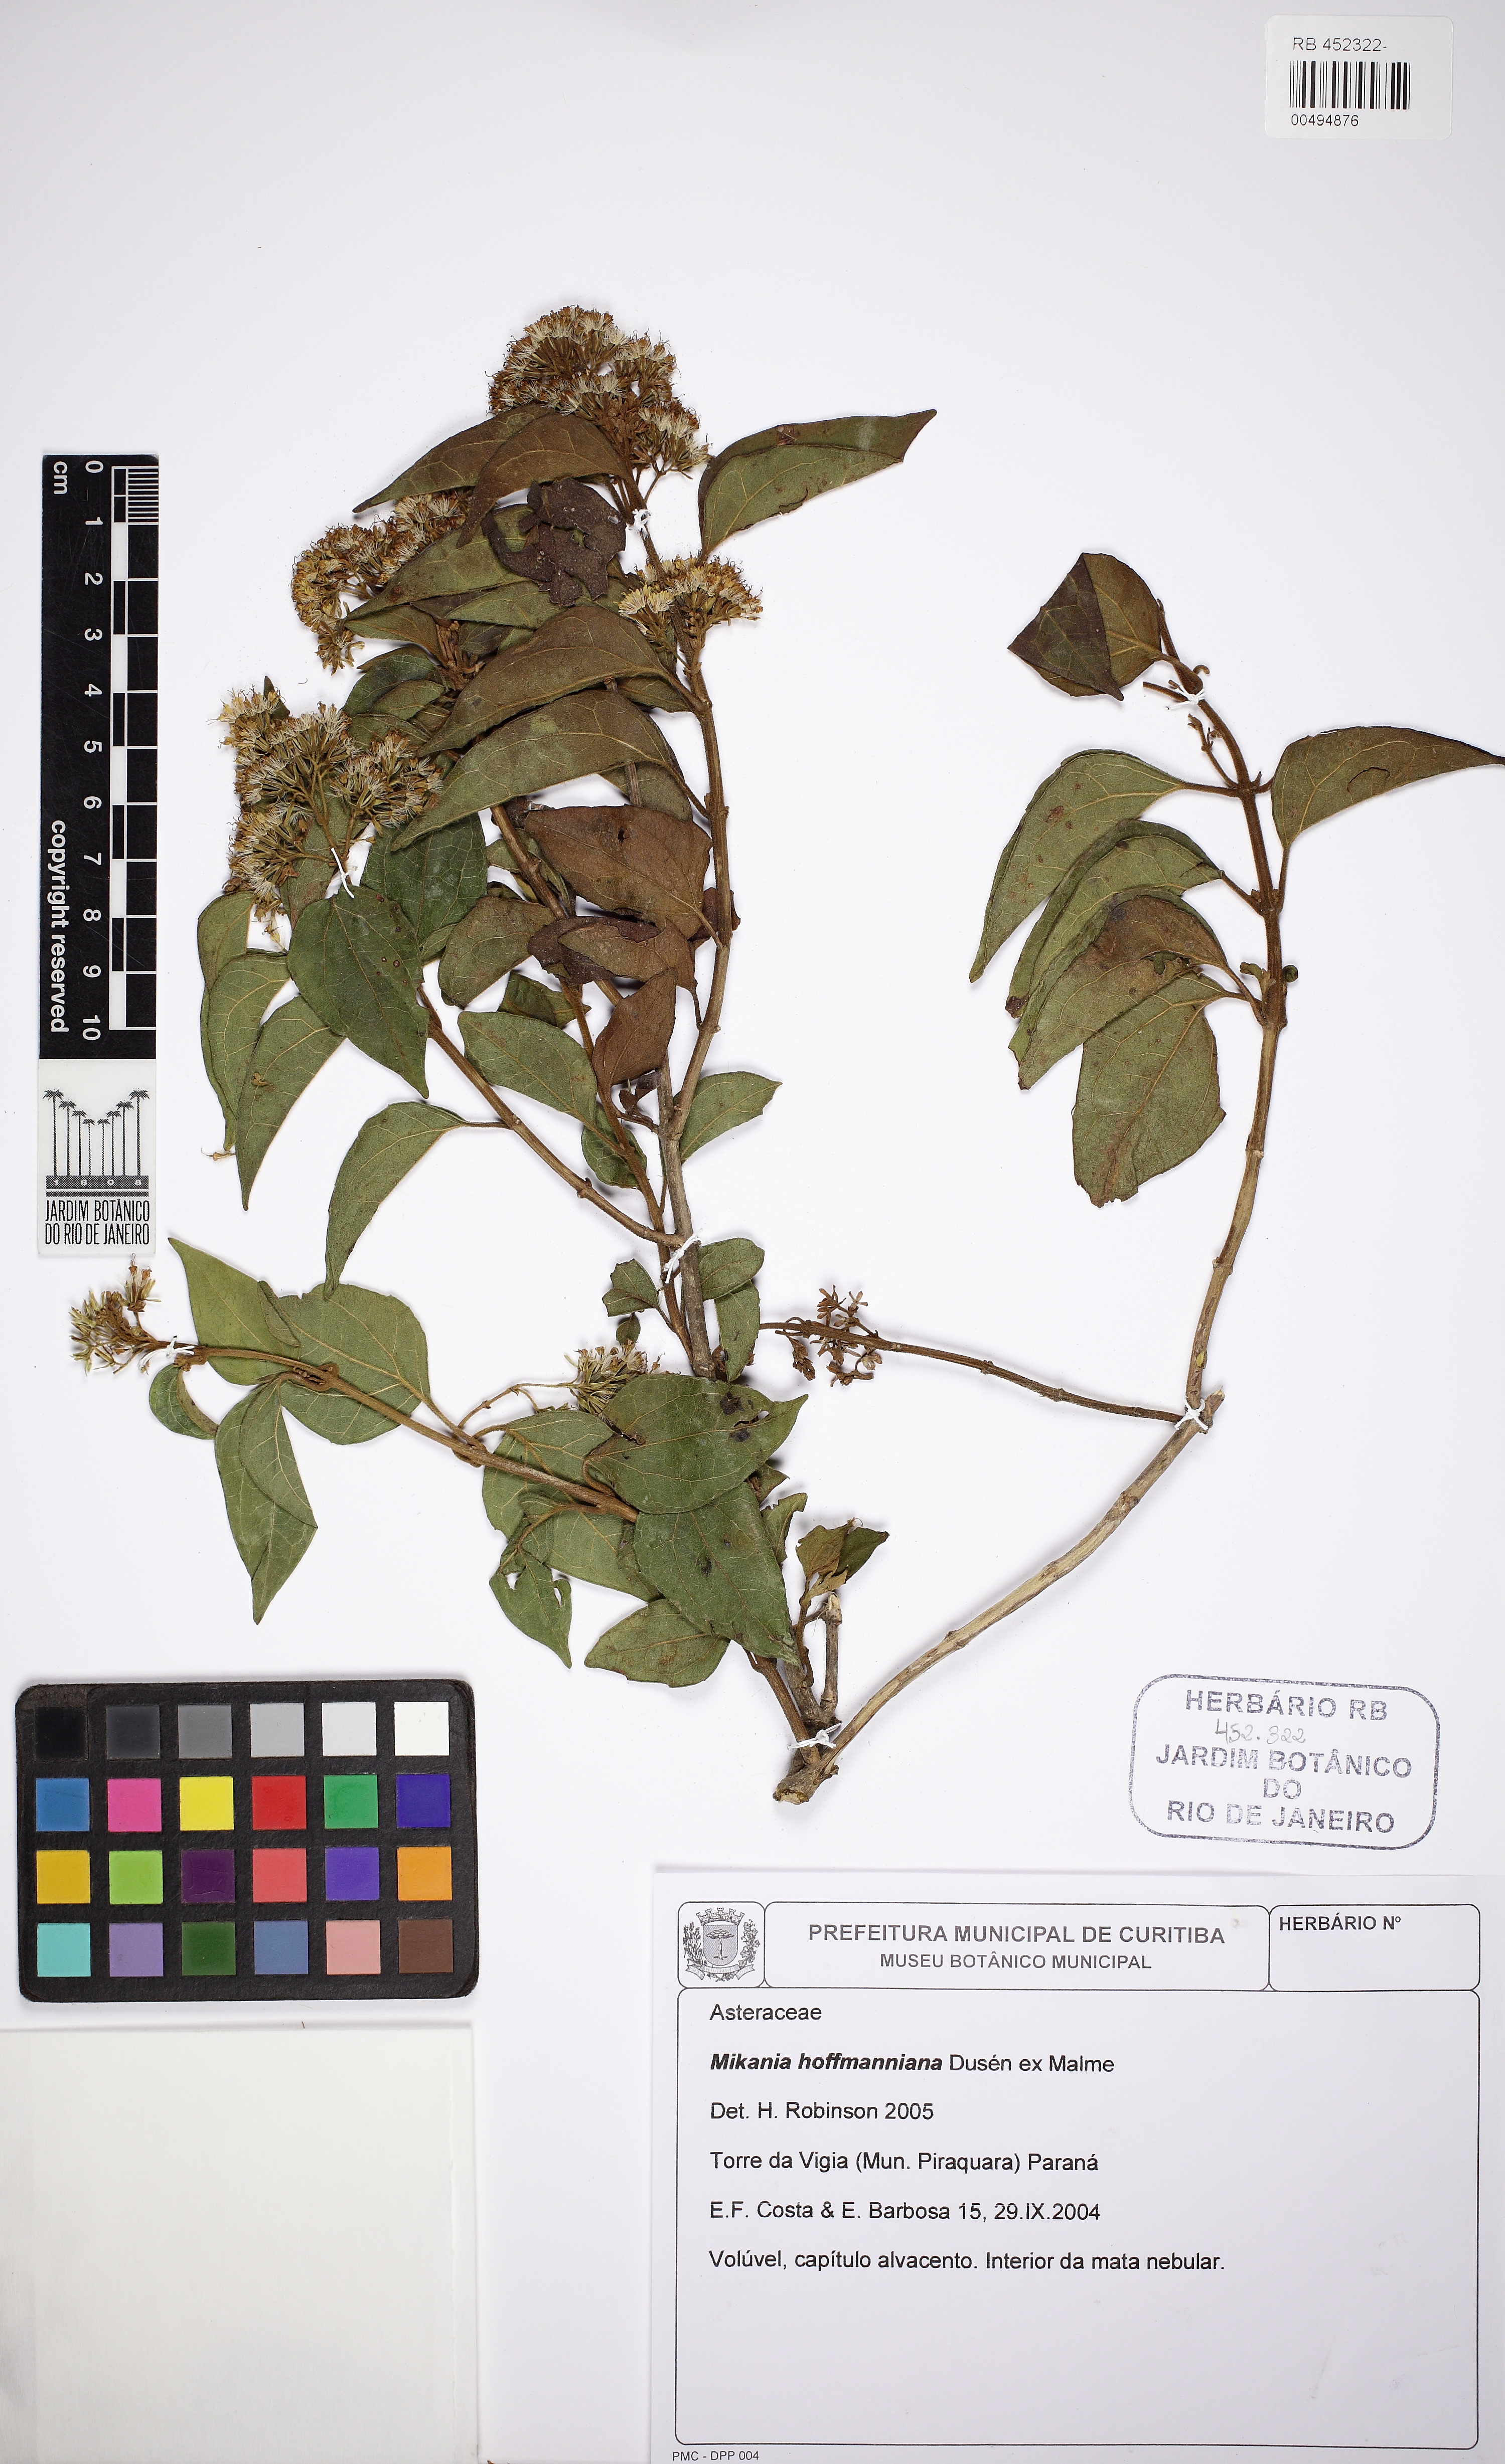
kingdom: Plantae
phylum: Tracheophyta
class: Magnoliopsida
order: Asterales
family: Asteraceae
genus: Mikania
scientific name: Mikania hoffmanniana
